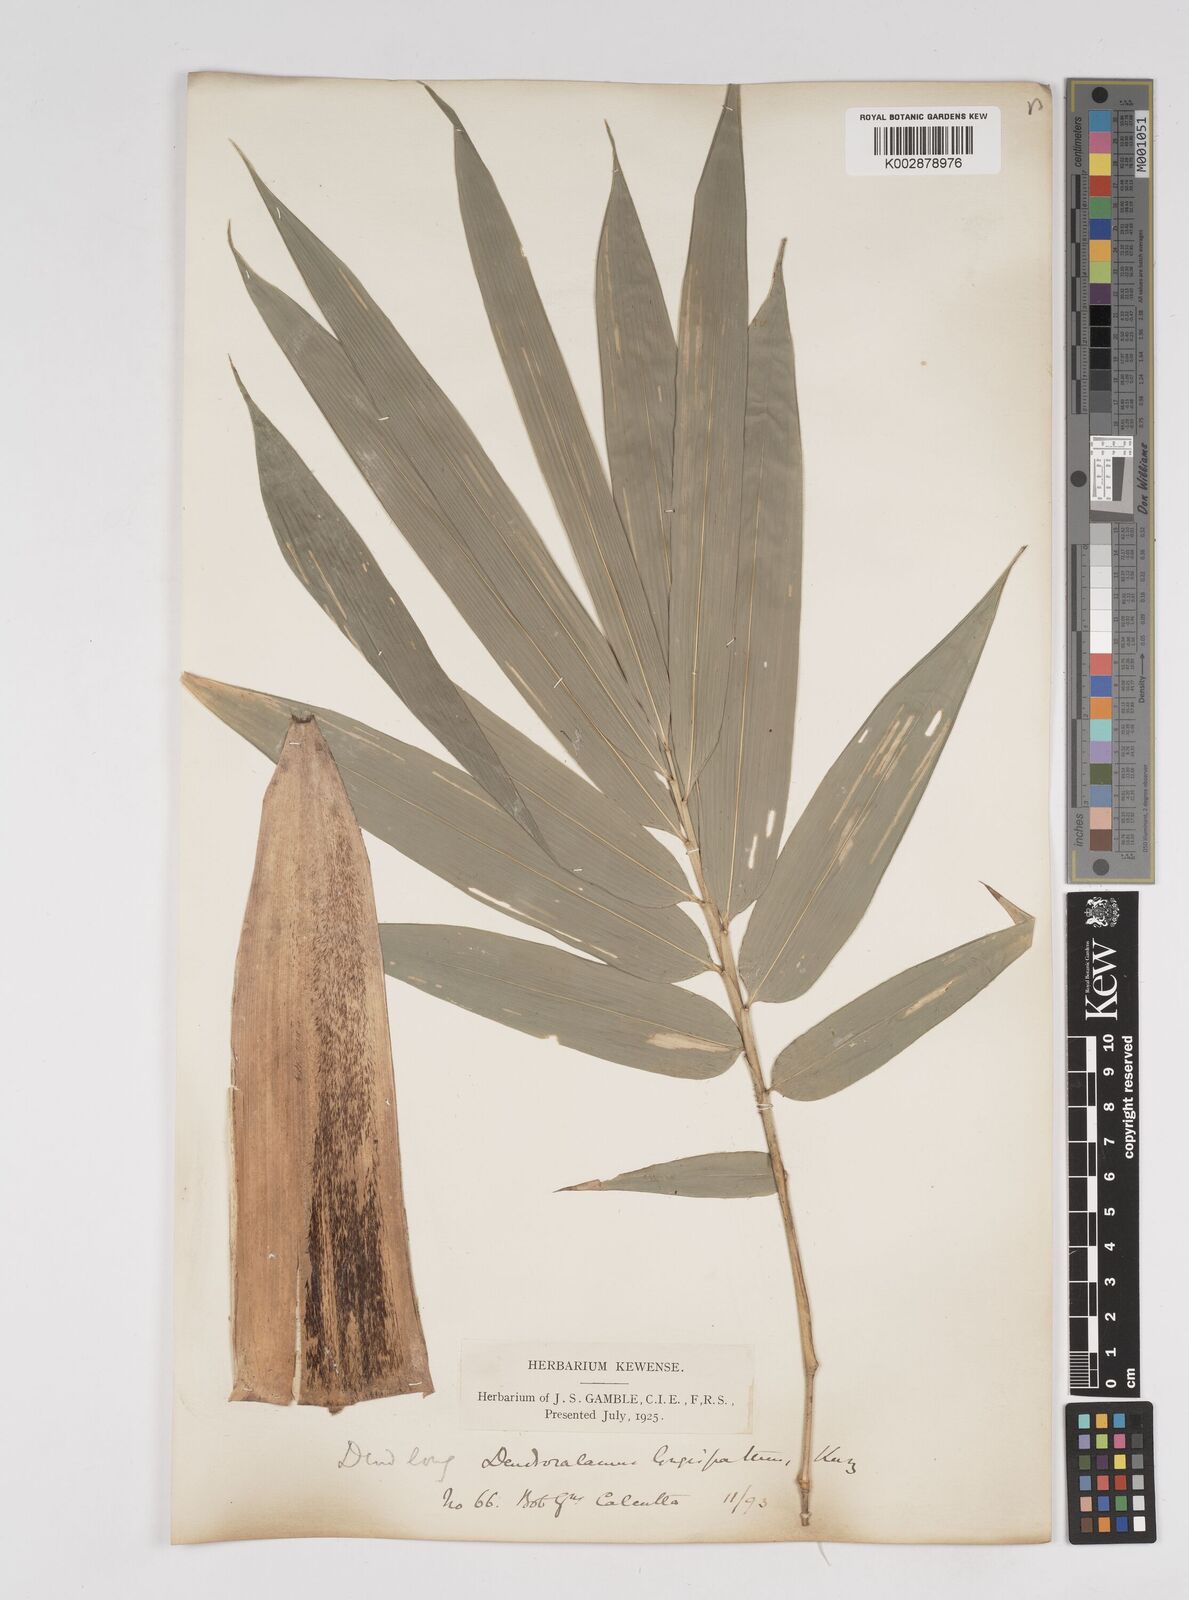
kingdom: Plantae
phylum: Tracheophyta
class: Liliopsida
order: Poales
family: Poaceae
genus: Dendrocalamus
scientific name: Dendrocalamus longispathus
